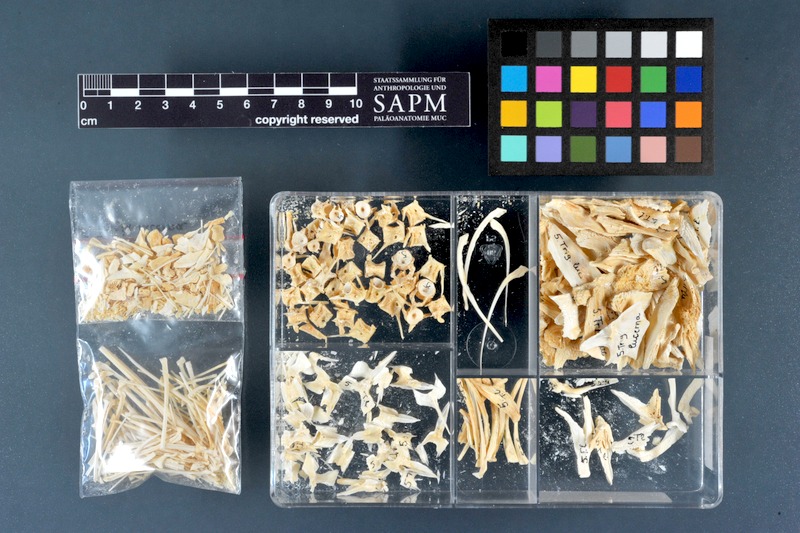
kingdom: Animalia
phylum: Chordata
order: Scorpaeniformes
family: Triglidae
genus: Chelidonichthys
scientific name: Chelidonichthys lucerna
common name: Tub gurnard
